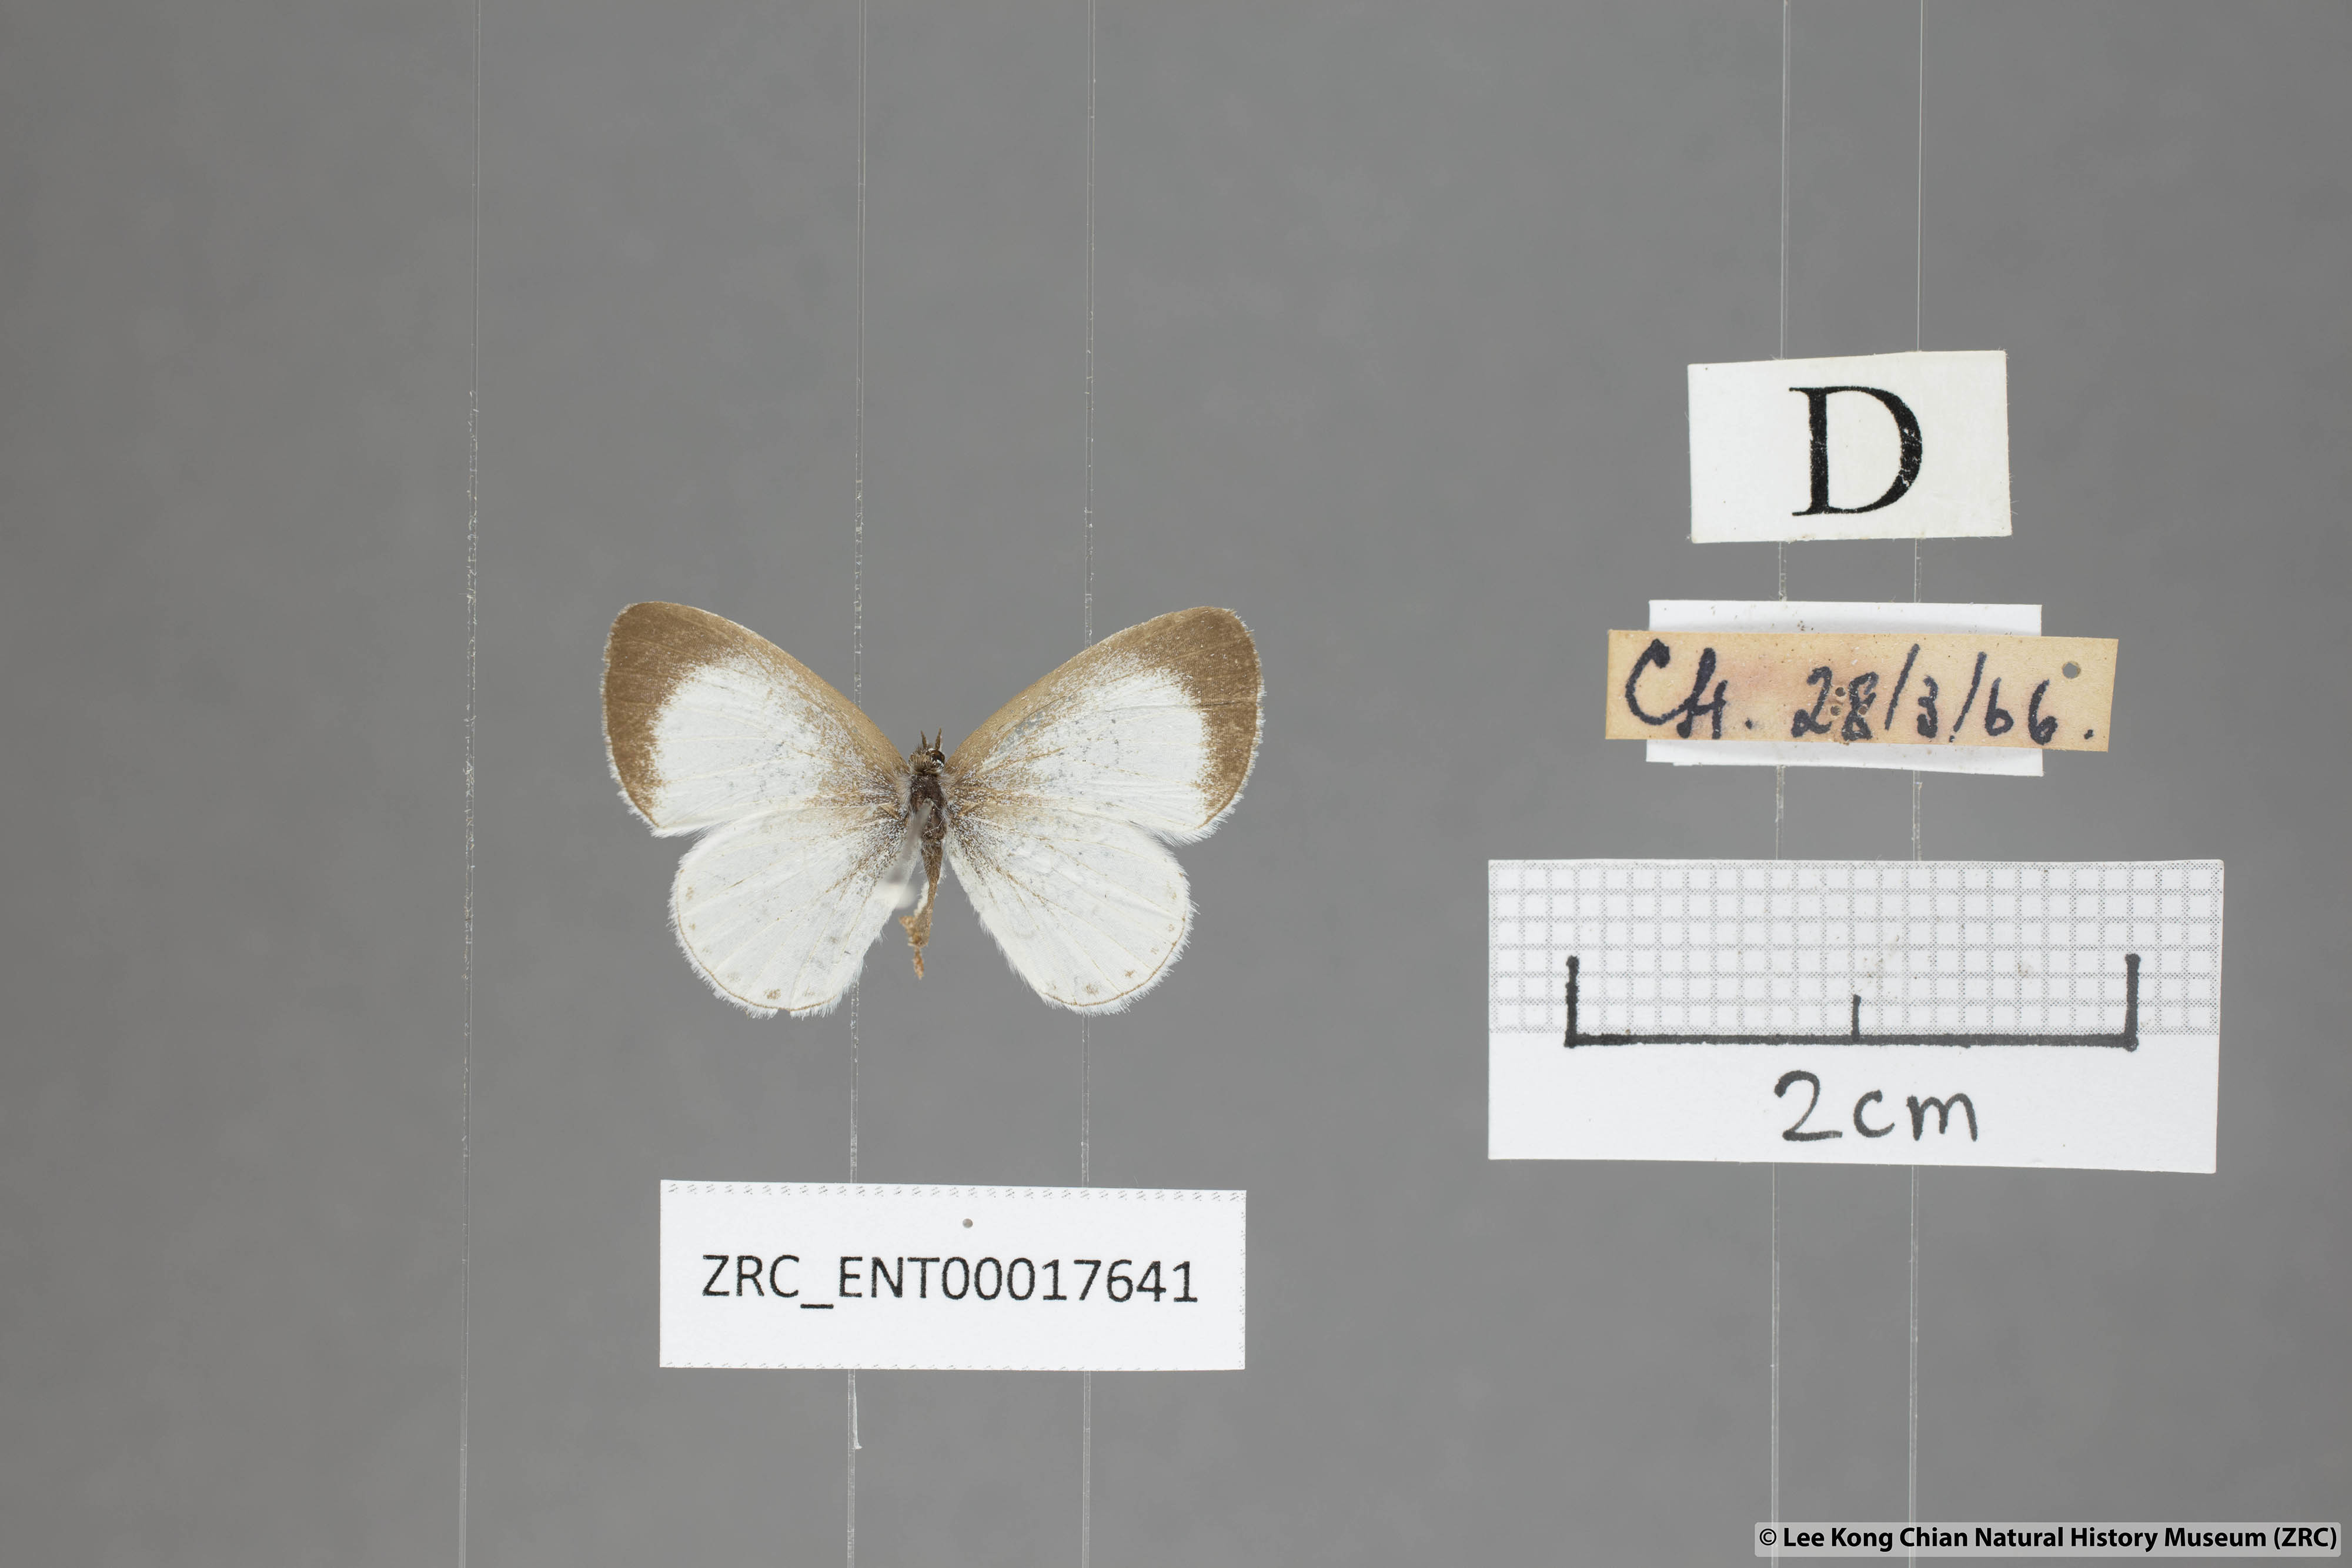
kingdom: Animalia
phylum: Arthropoda
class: Insecta
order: Lepidoptera
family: Lycaenidae
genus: Udara
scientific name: Udara akasa
